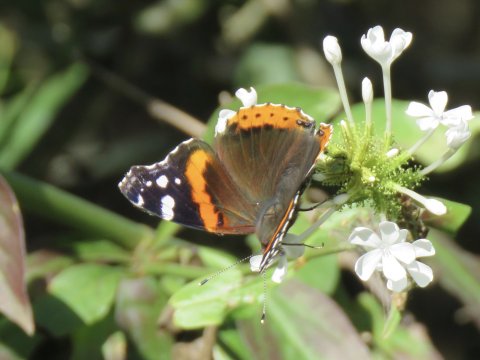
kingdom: Animalia
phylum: Arthropoda
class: Insecta
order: Lepidoptera
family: Nymphalidae
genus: Vanessa
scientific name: Vanessa atalanta
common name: Red Admiral
